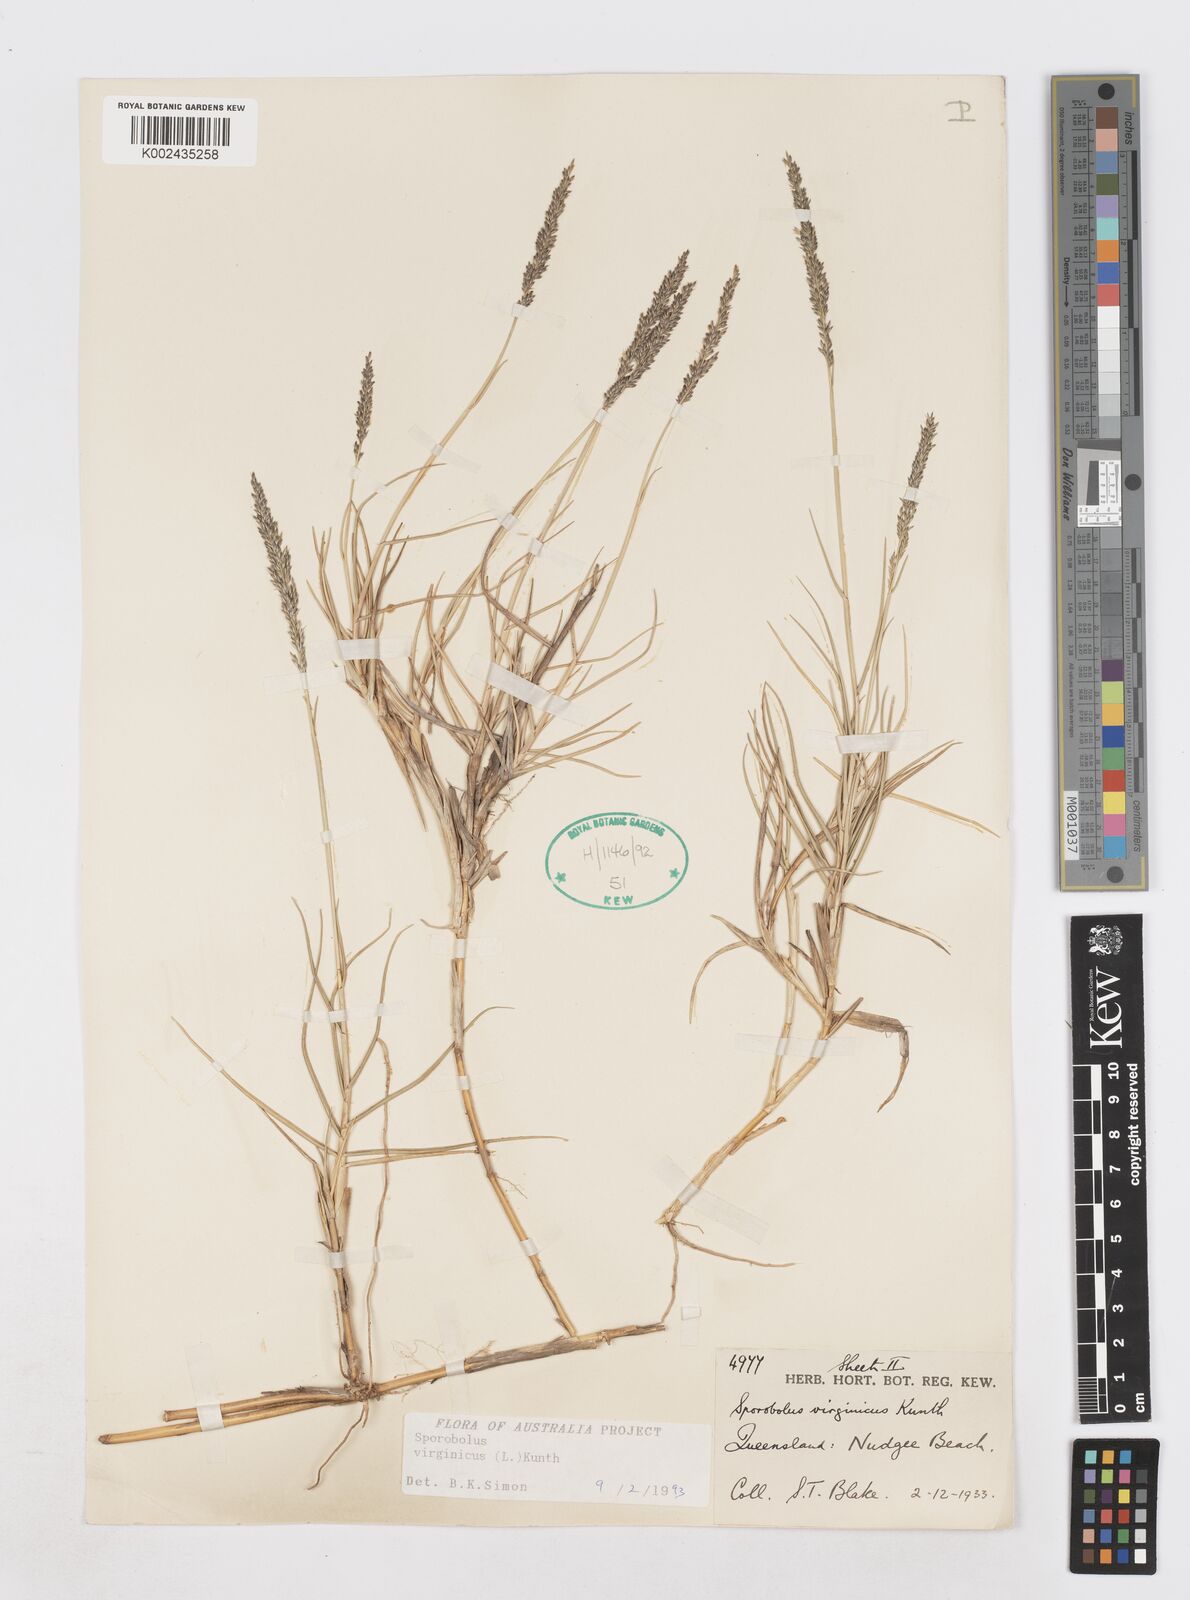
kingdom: Plantae
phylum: Tracheophyta
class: Liliopsida
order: Poales
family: Poaceae
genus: Sporobolus
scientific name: Sporobolus virginicus
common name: Beach dropseed
